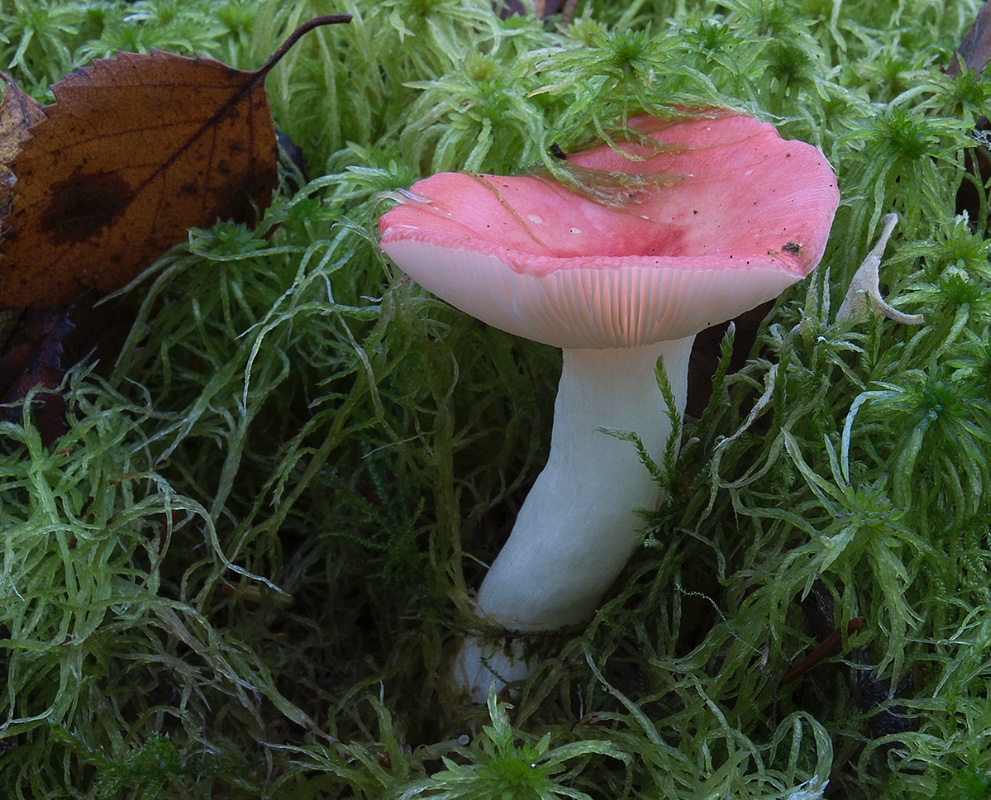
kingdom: Fungi
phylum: Basidiomycota
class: Agaricomycetes
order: Russulales
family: Russulaceae
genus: Russula
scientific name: Russula
